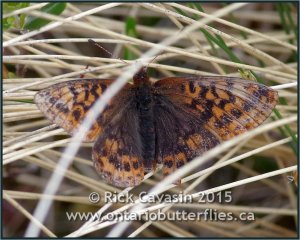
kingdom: Animalia
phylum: Arthropoda
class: Insecta
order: Lepidoptera
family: Nymphalidae
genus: Boloria
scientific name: Boloria frigga
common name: Frigga Fritillary
